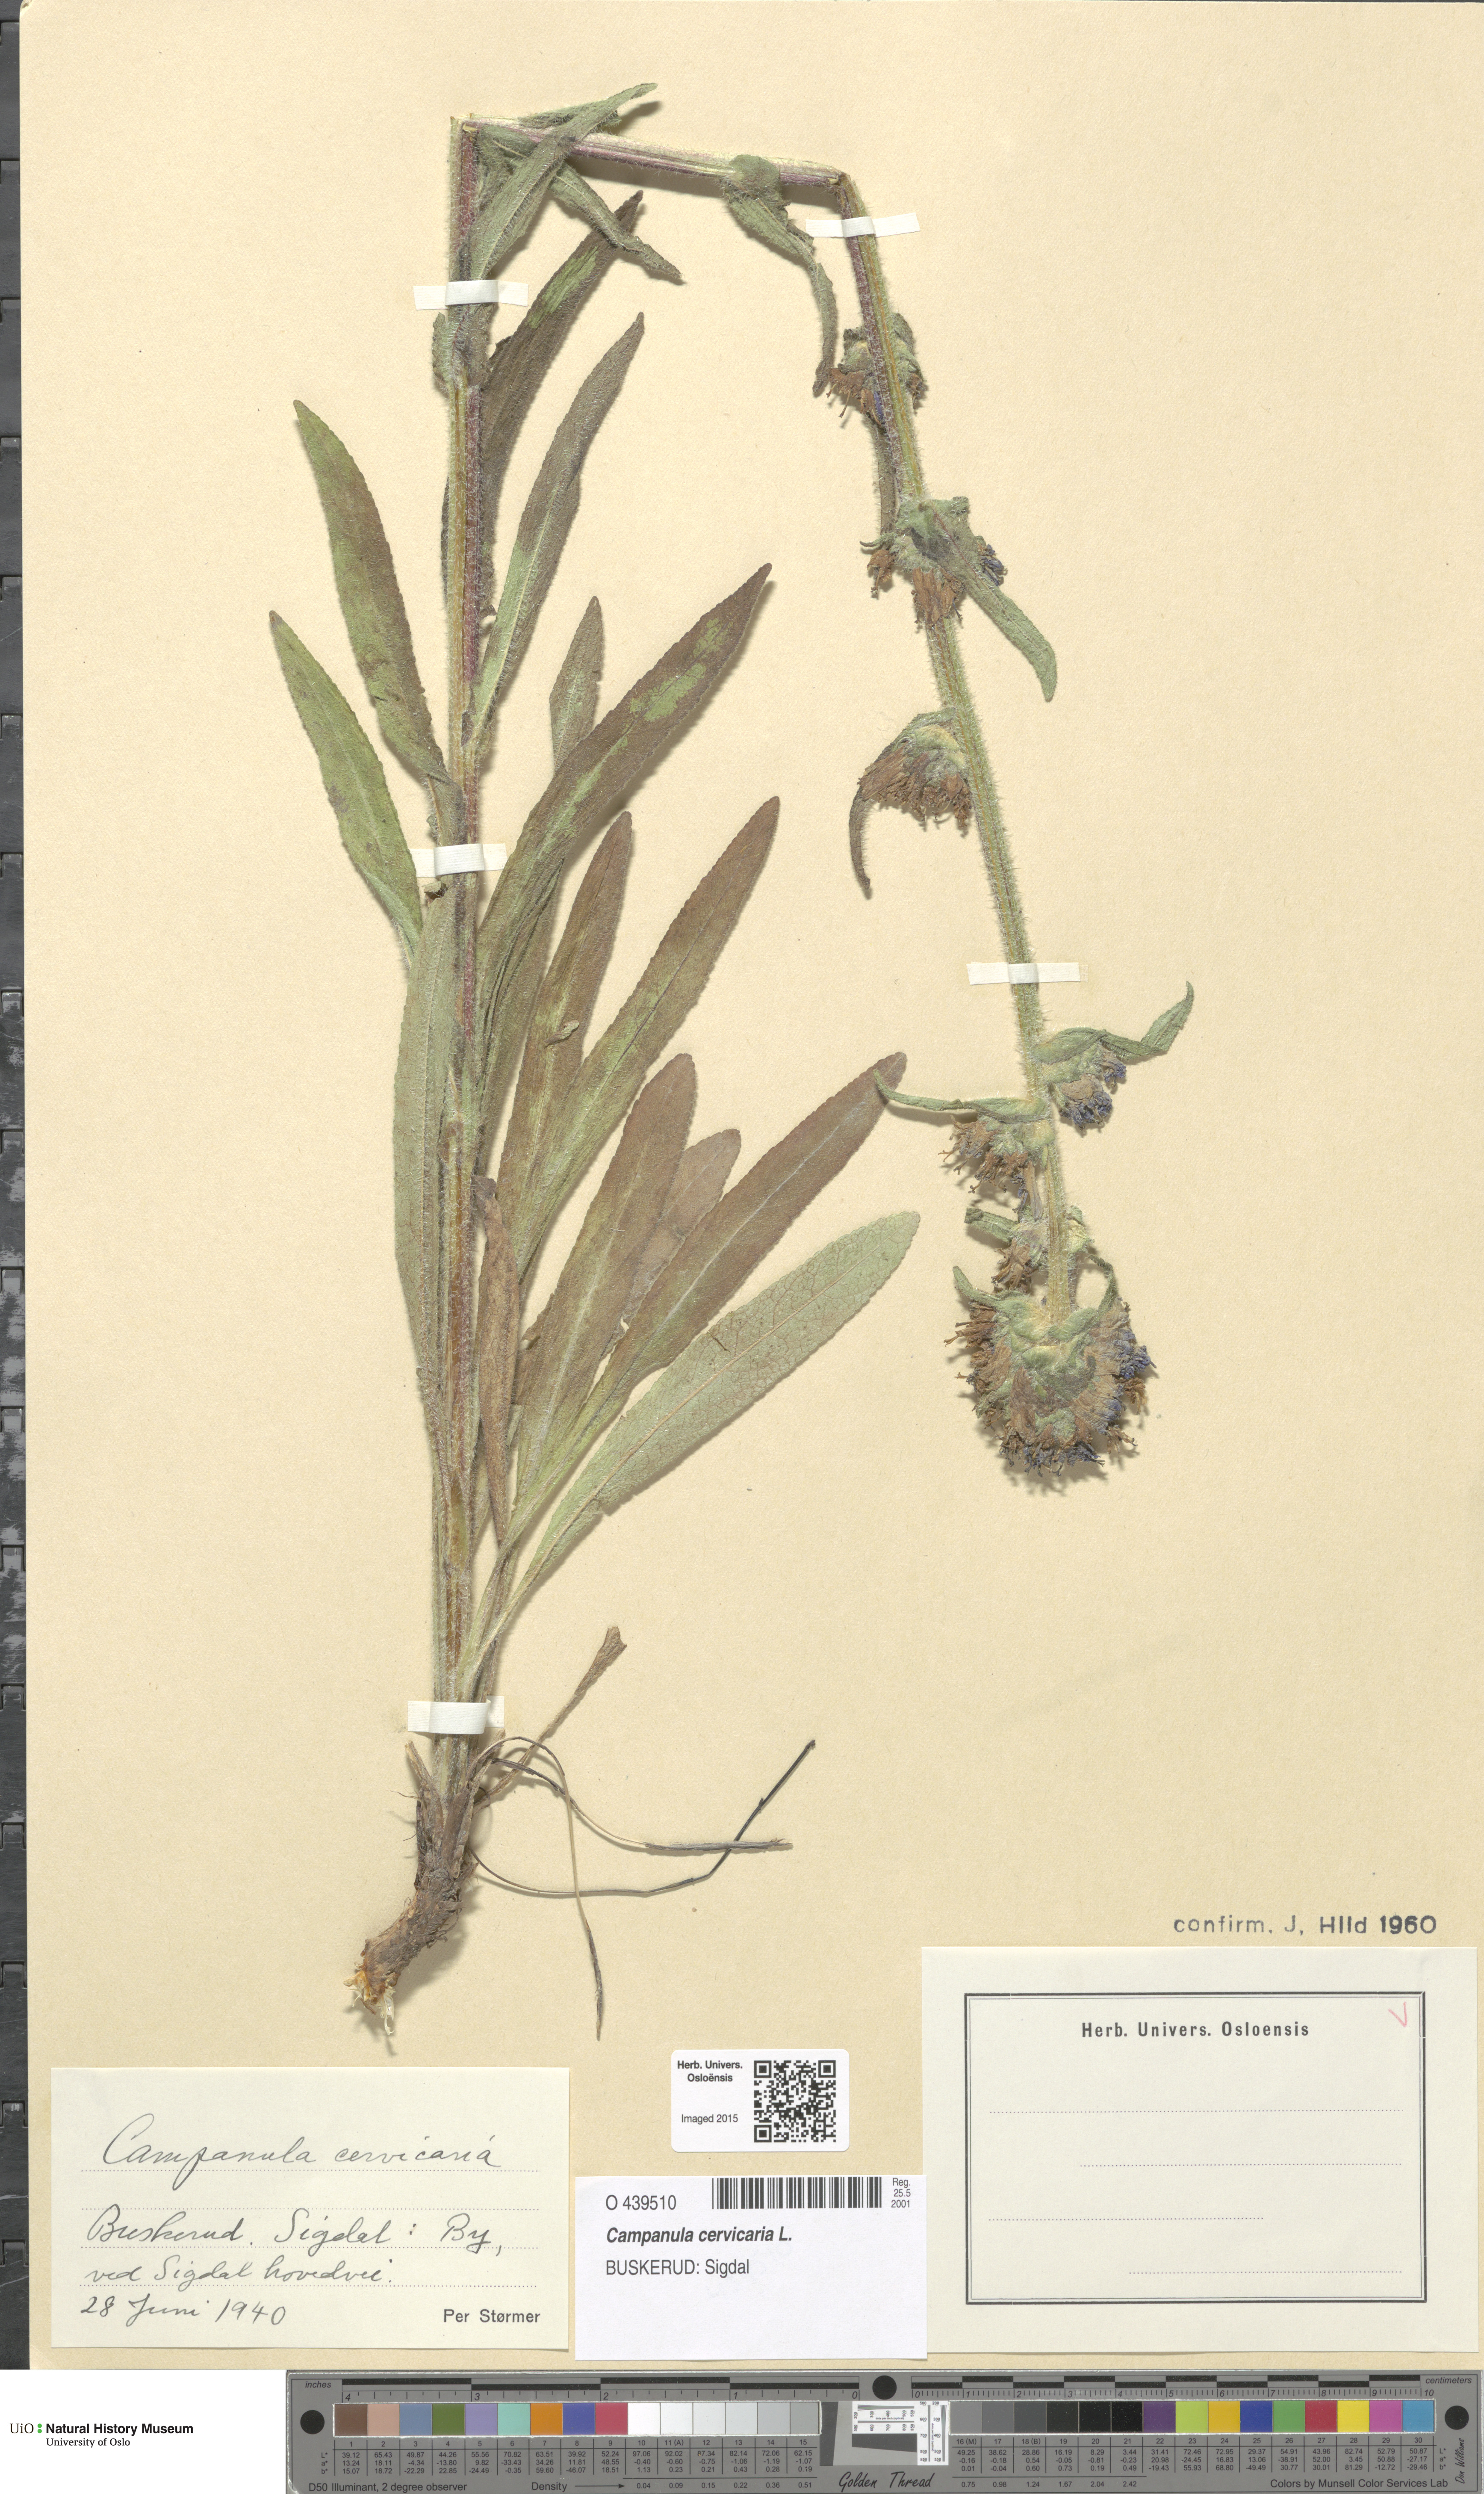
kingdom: Plantae
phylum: Tracheophyta
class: Magnoliopsida
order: Asterales
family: Campanulaceae
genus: Campanula
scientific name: Campanula cervicaria
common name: Bristly bellflower
